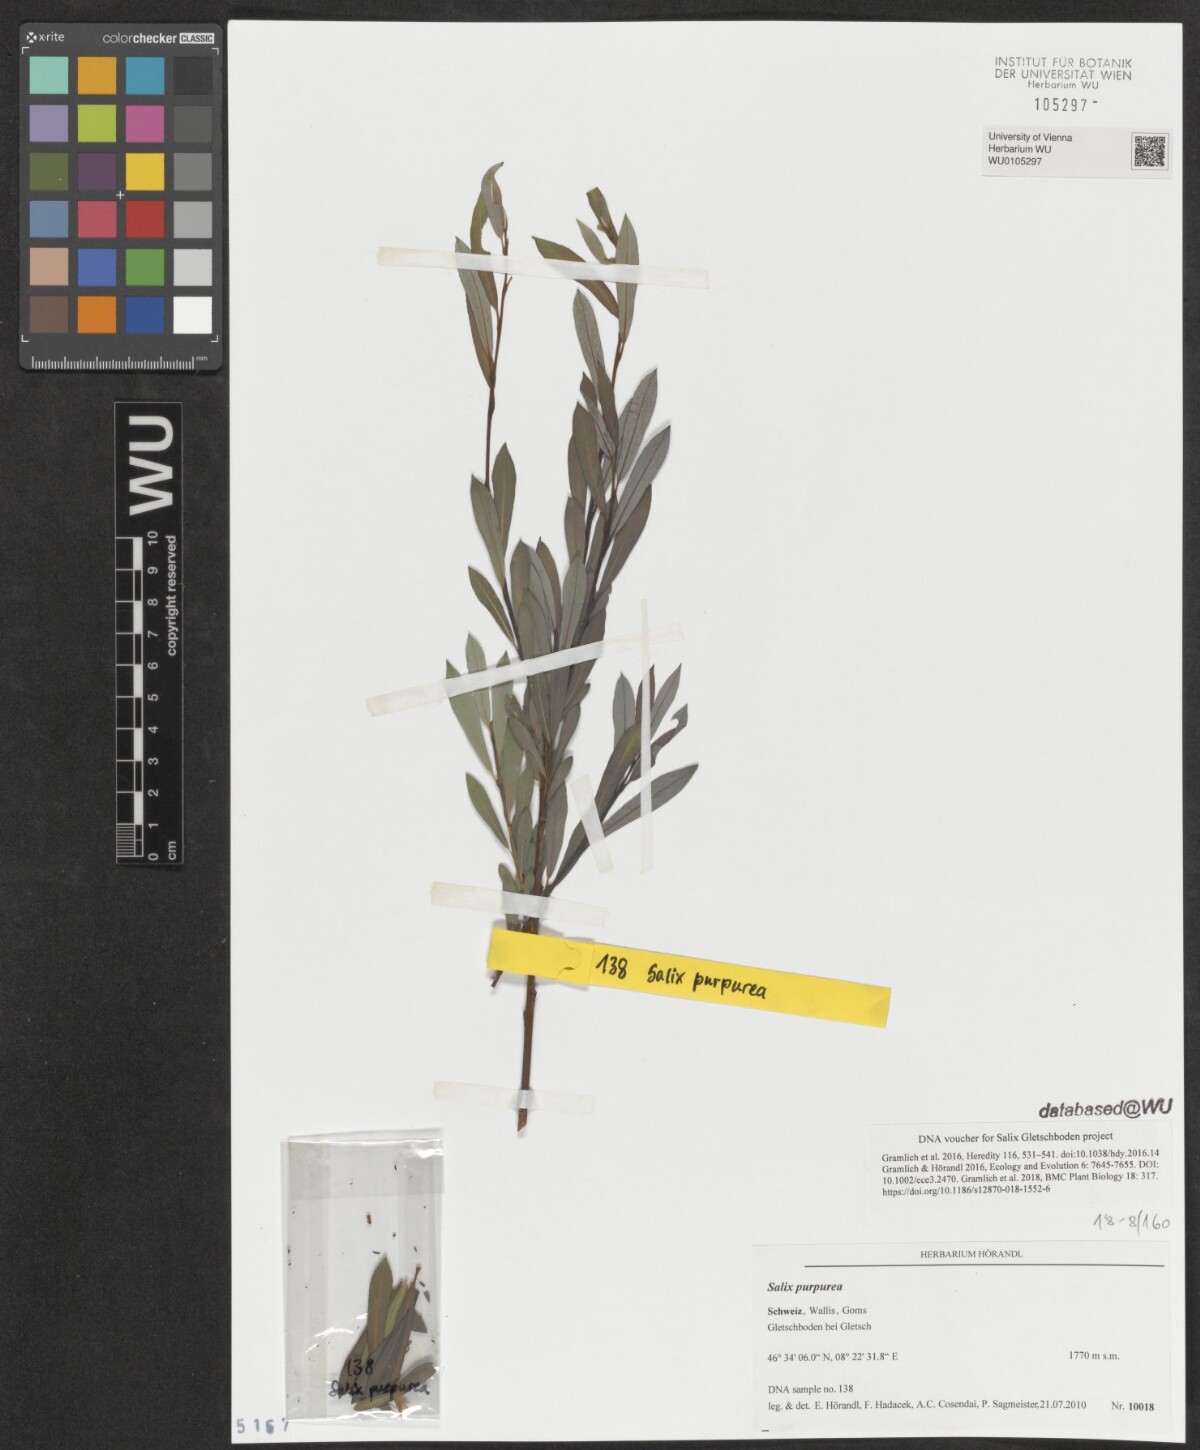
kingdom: Plantae
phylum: Tracheophyta
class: Magnoliopsida
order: Malpighiales
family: Salicaceae
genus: Salix
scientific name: Salix purpurea
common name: Purple willow
